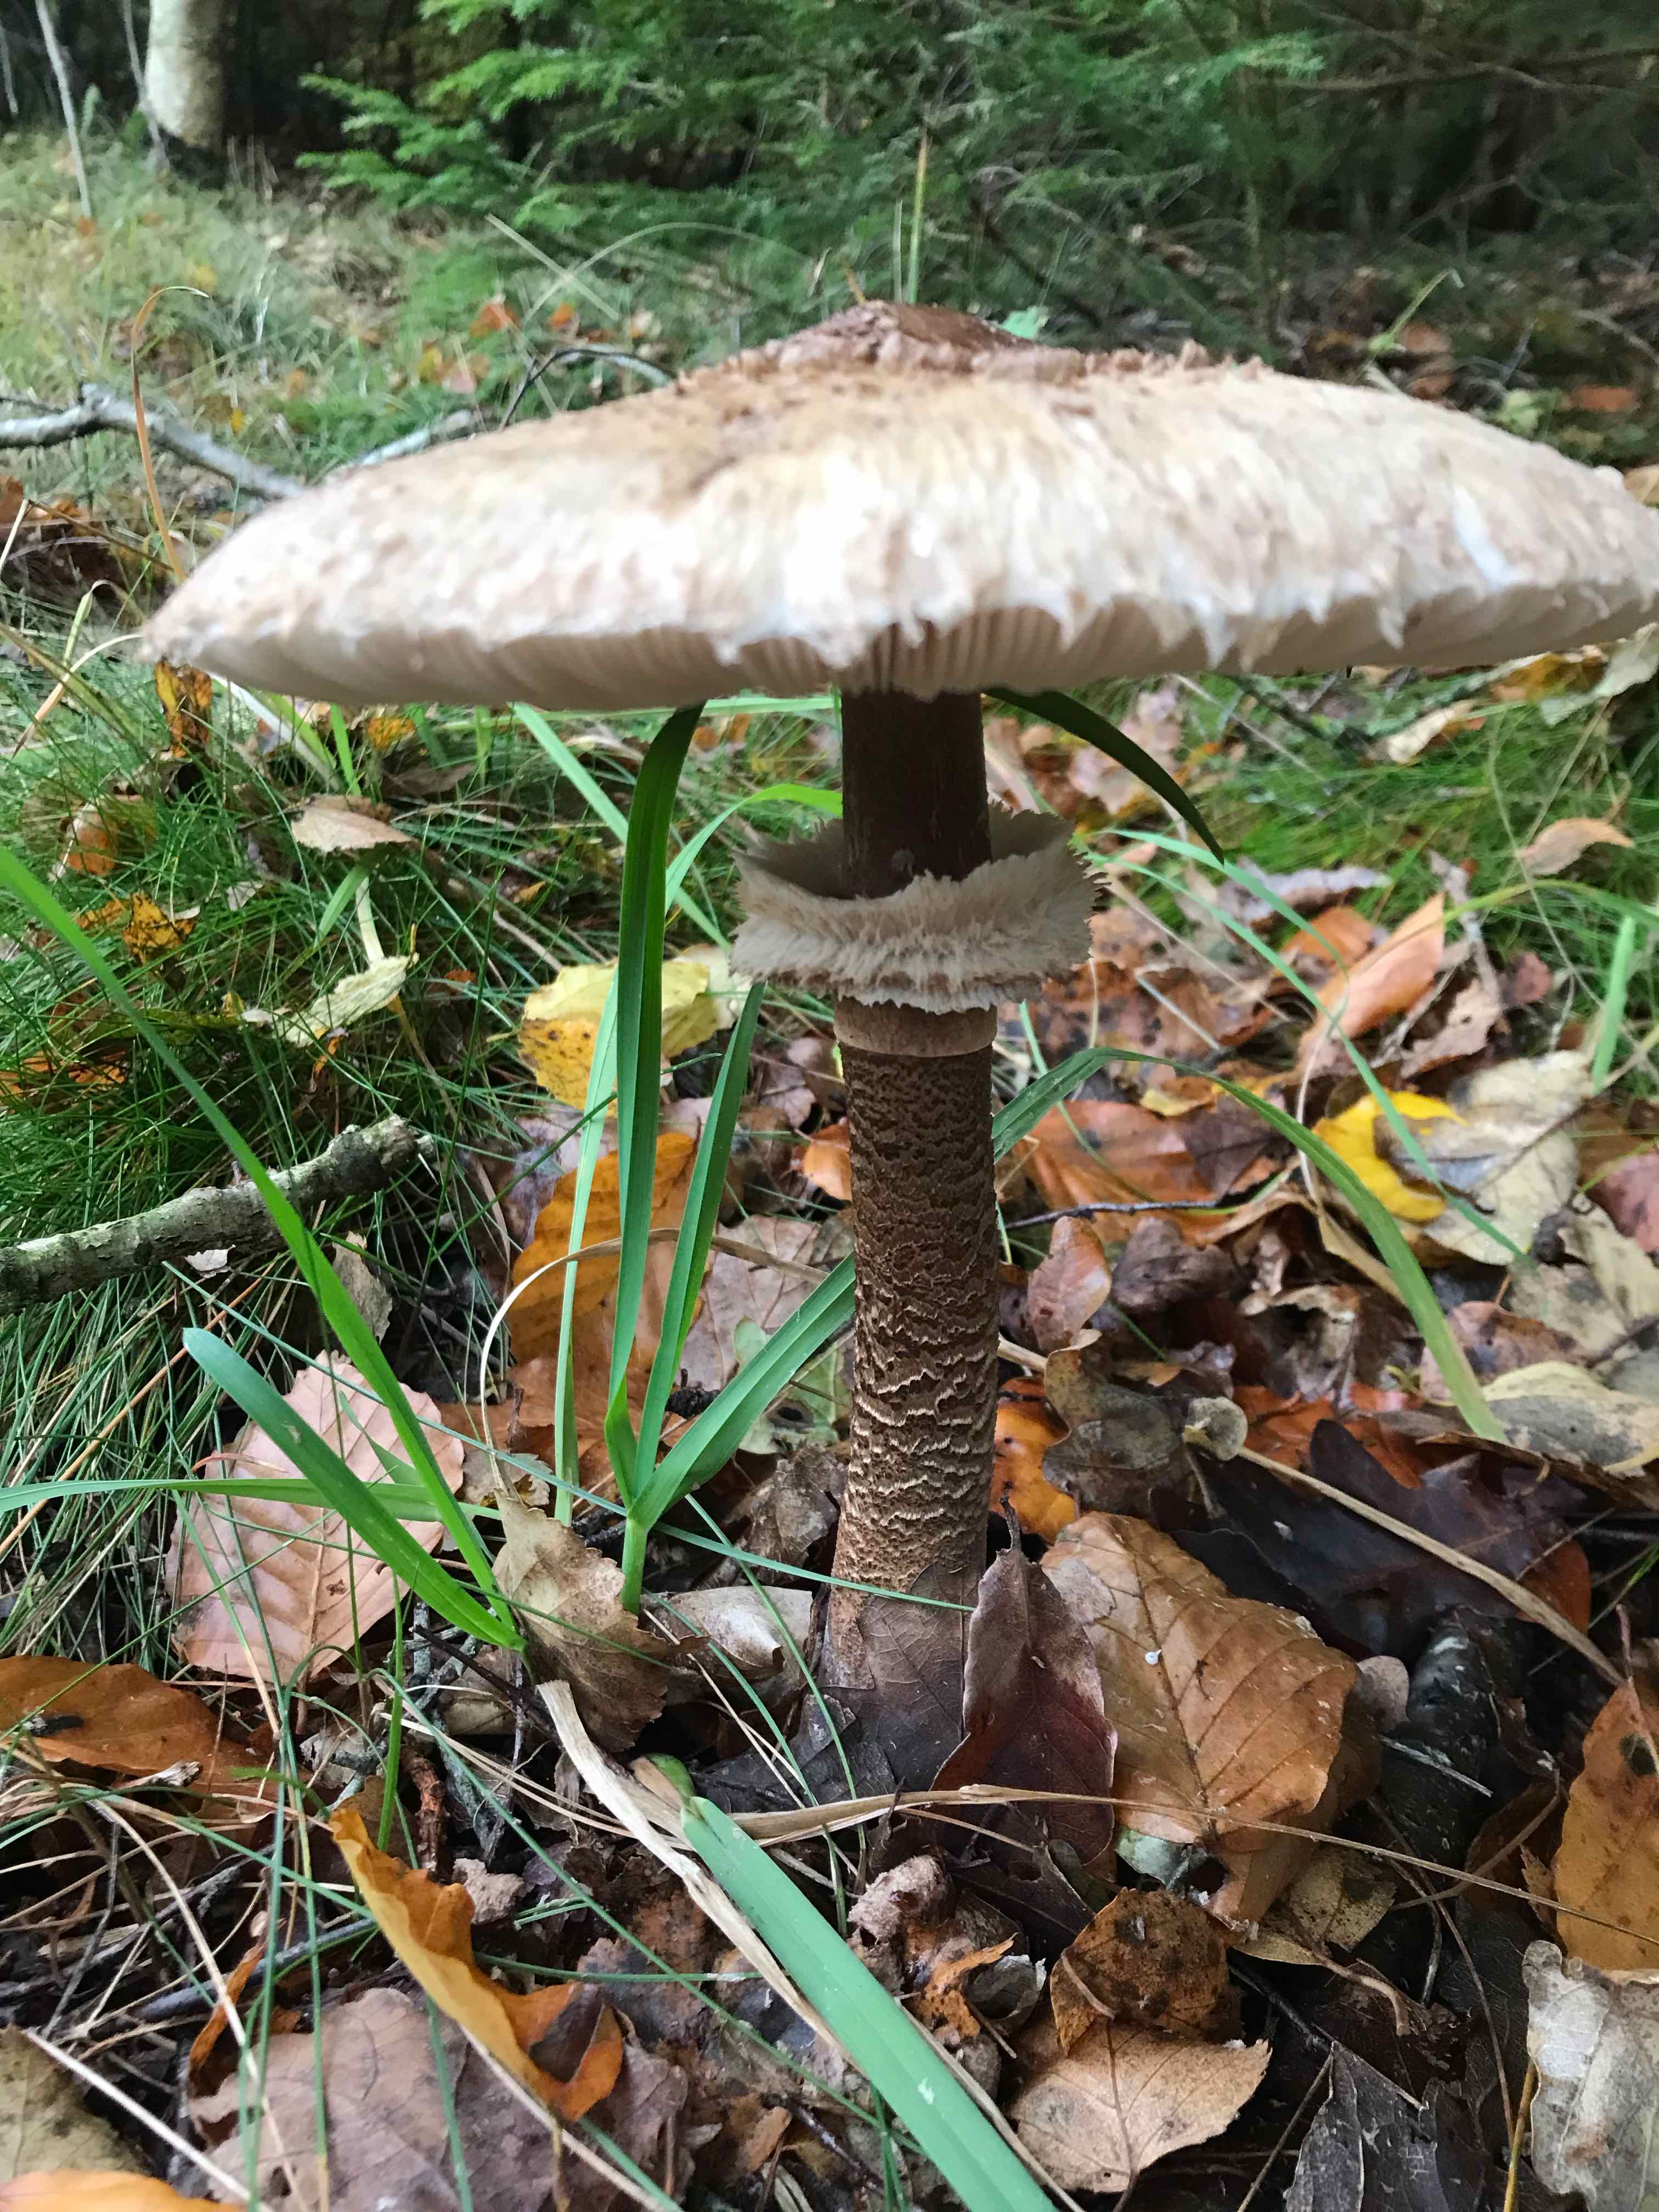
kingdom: Fungi
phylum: Basidiomycota
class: Agaricomycetes
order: Agaricales
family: Agaricaceae
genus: Macrolepiota
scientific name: Macrolepiota procera
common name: stor kæmpeparasolhat
